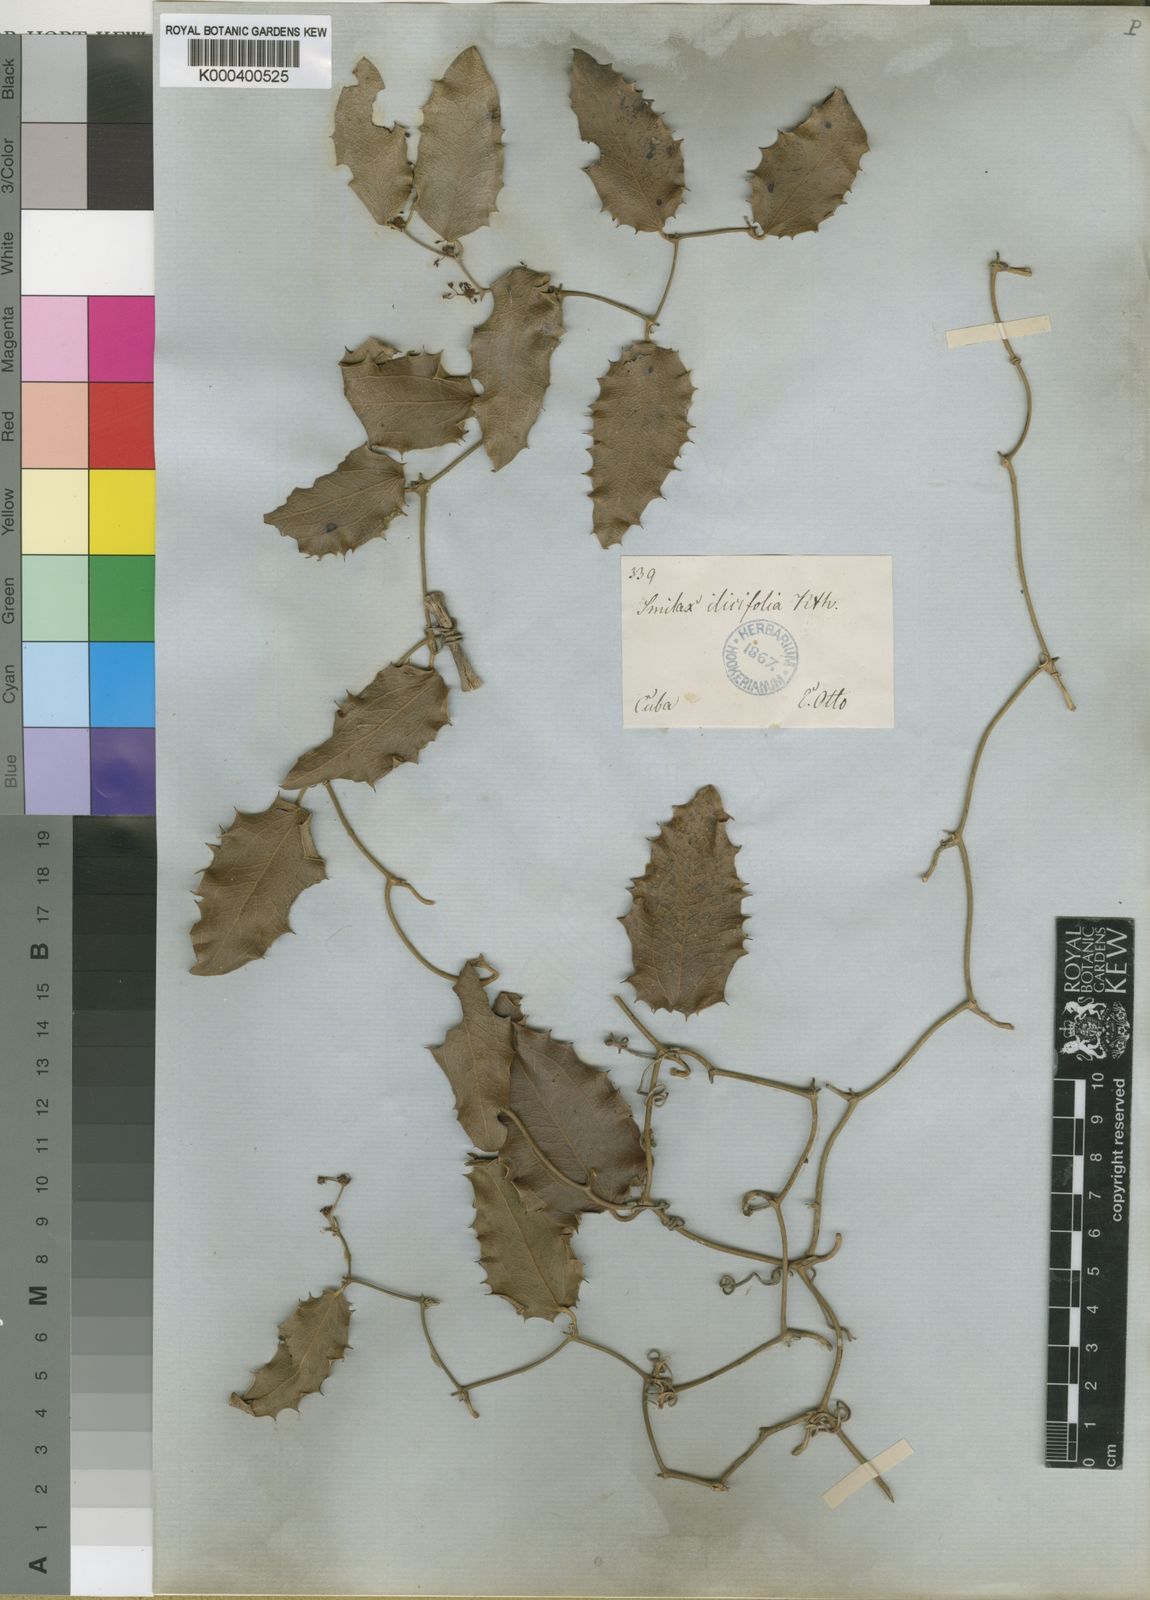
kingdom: Plantae
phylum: Tracheophyta
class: Liliopsida
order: Liliales
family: Smilacaceae
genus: Smilax
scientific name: Smilax aquifolium
